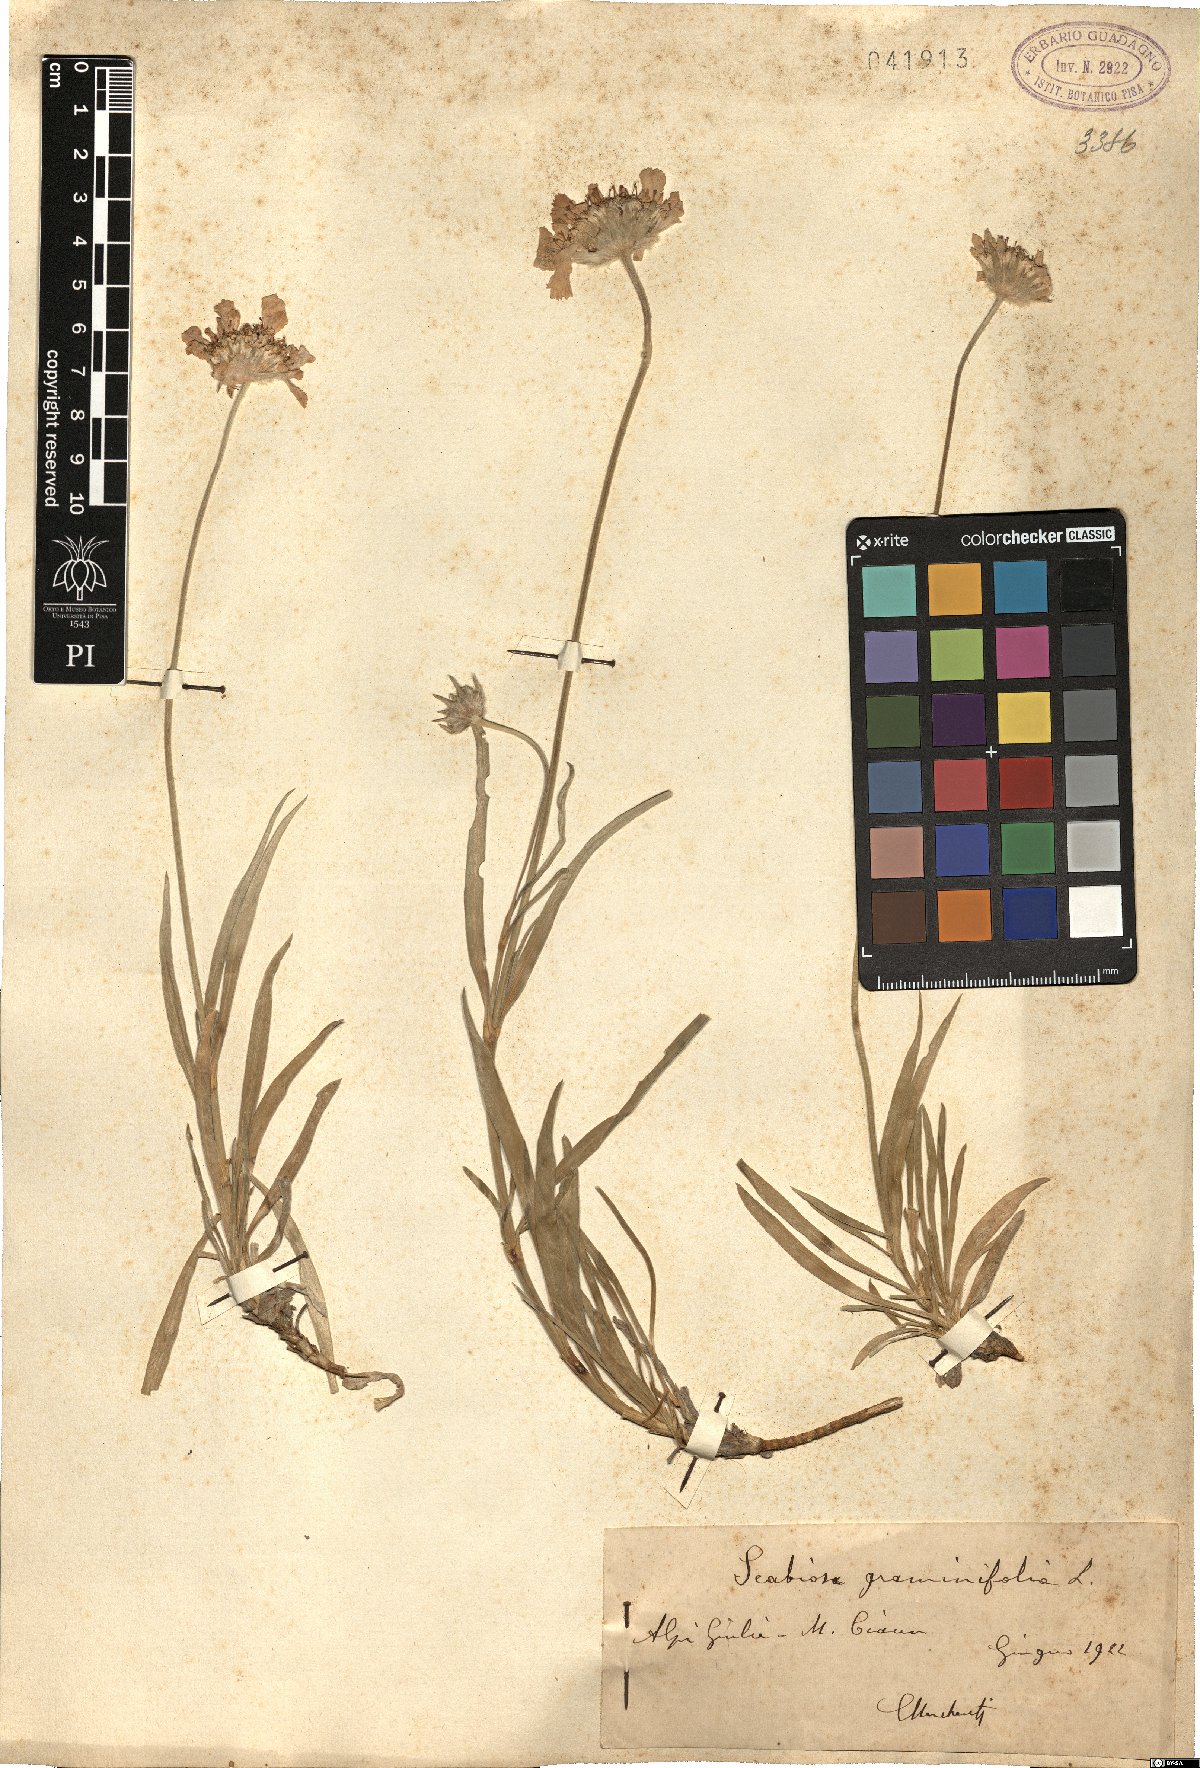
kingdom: Plantae
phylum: Tracheophyta
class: Magnoliopsida
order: Dipsacales
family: Caprifoliaceae
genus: Lomelosia
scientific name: Lomelosia graminifolia
